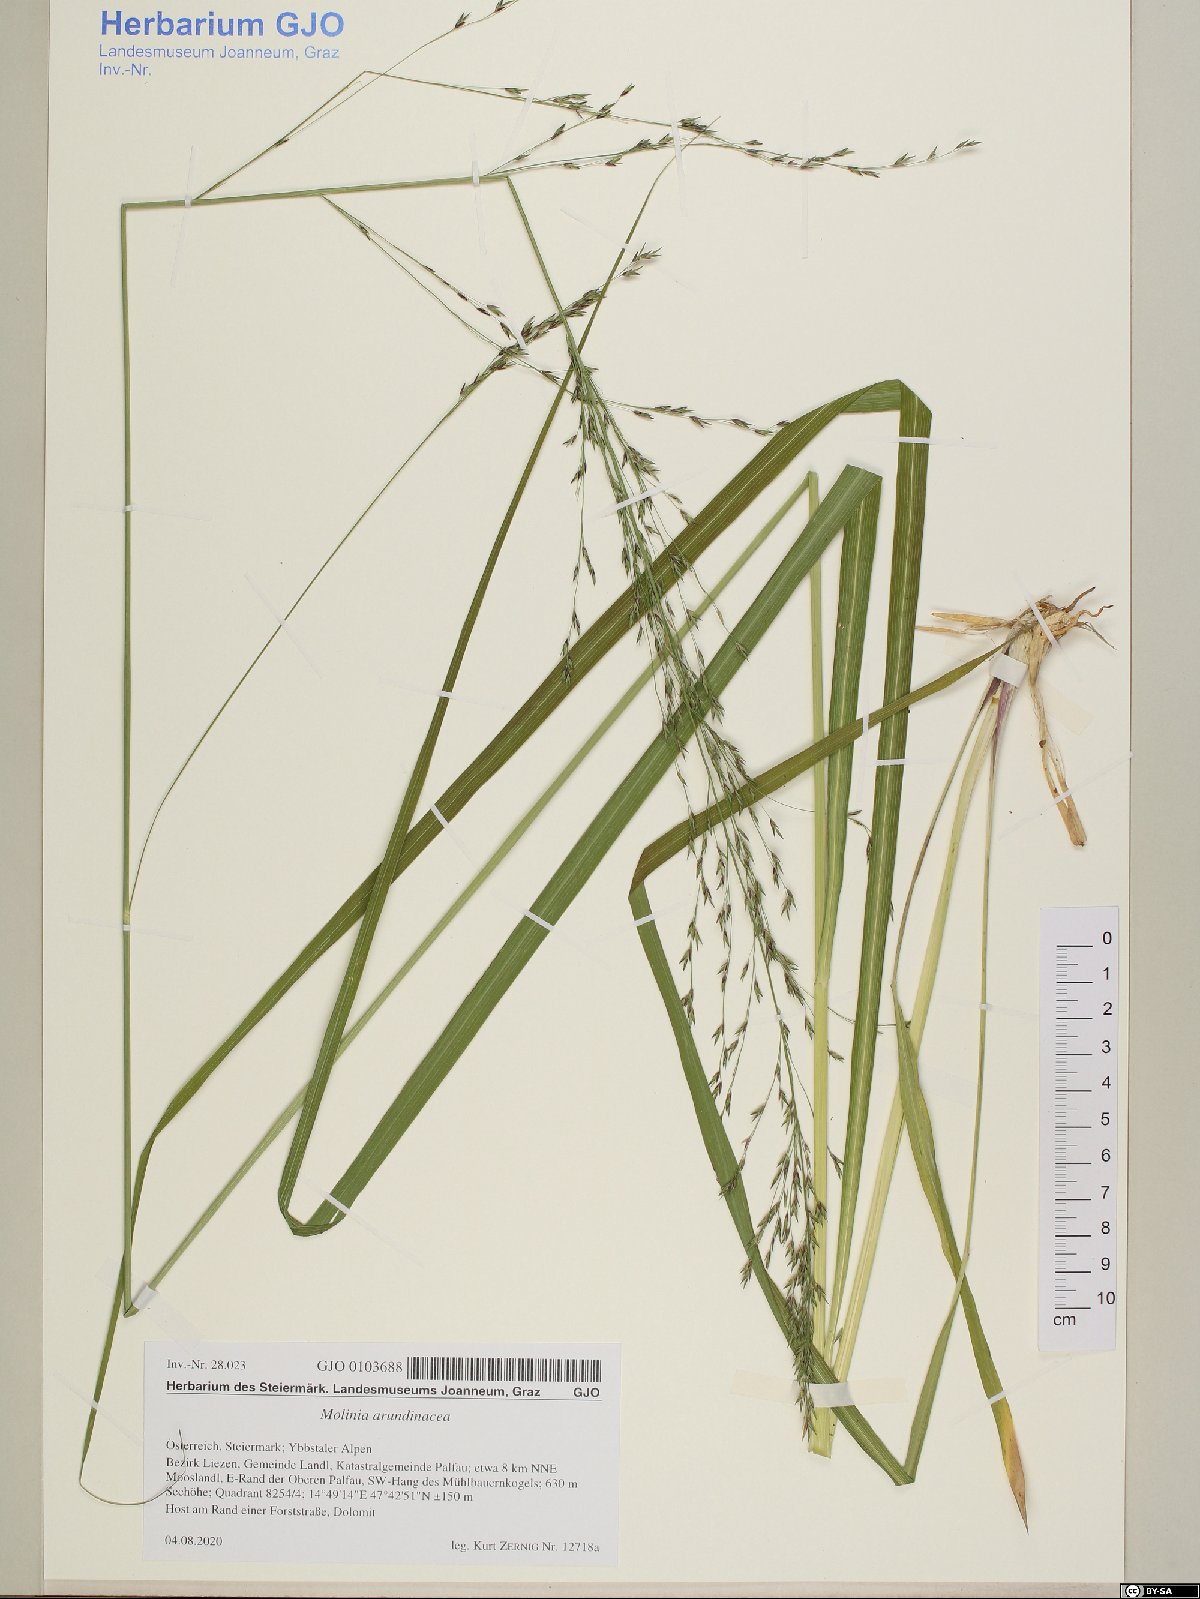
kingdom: Plantae
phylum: Tracheophyta
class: Liliopsida
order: Poales
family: Poaceae
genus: Molinia
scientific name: Molinia arundinacea
